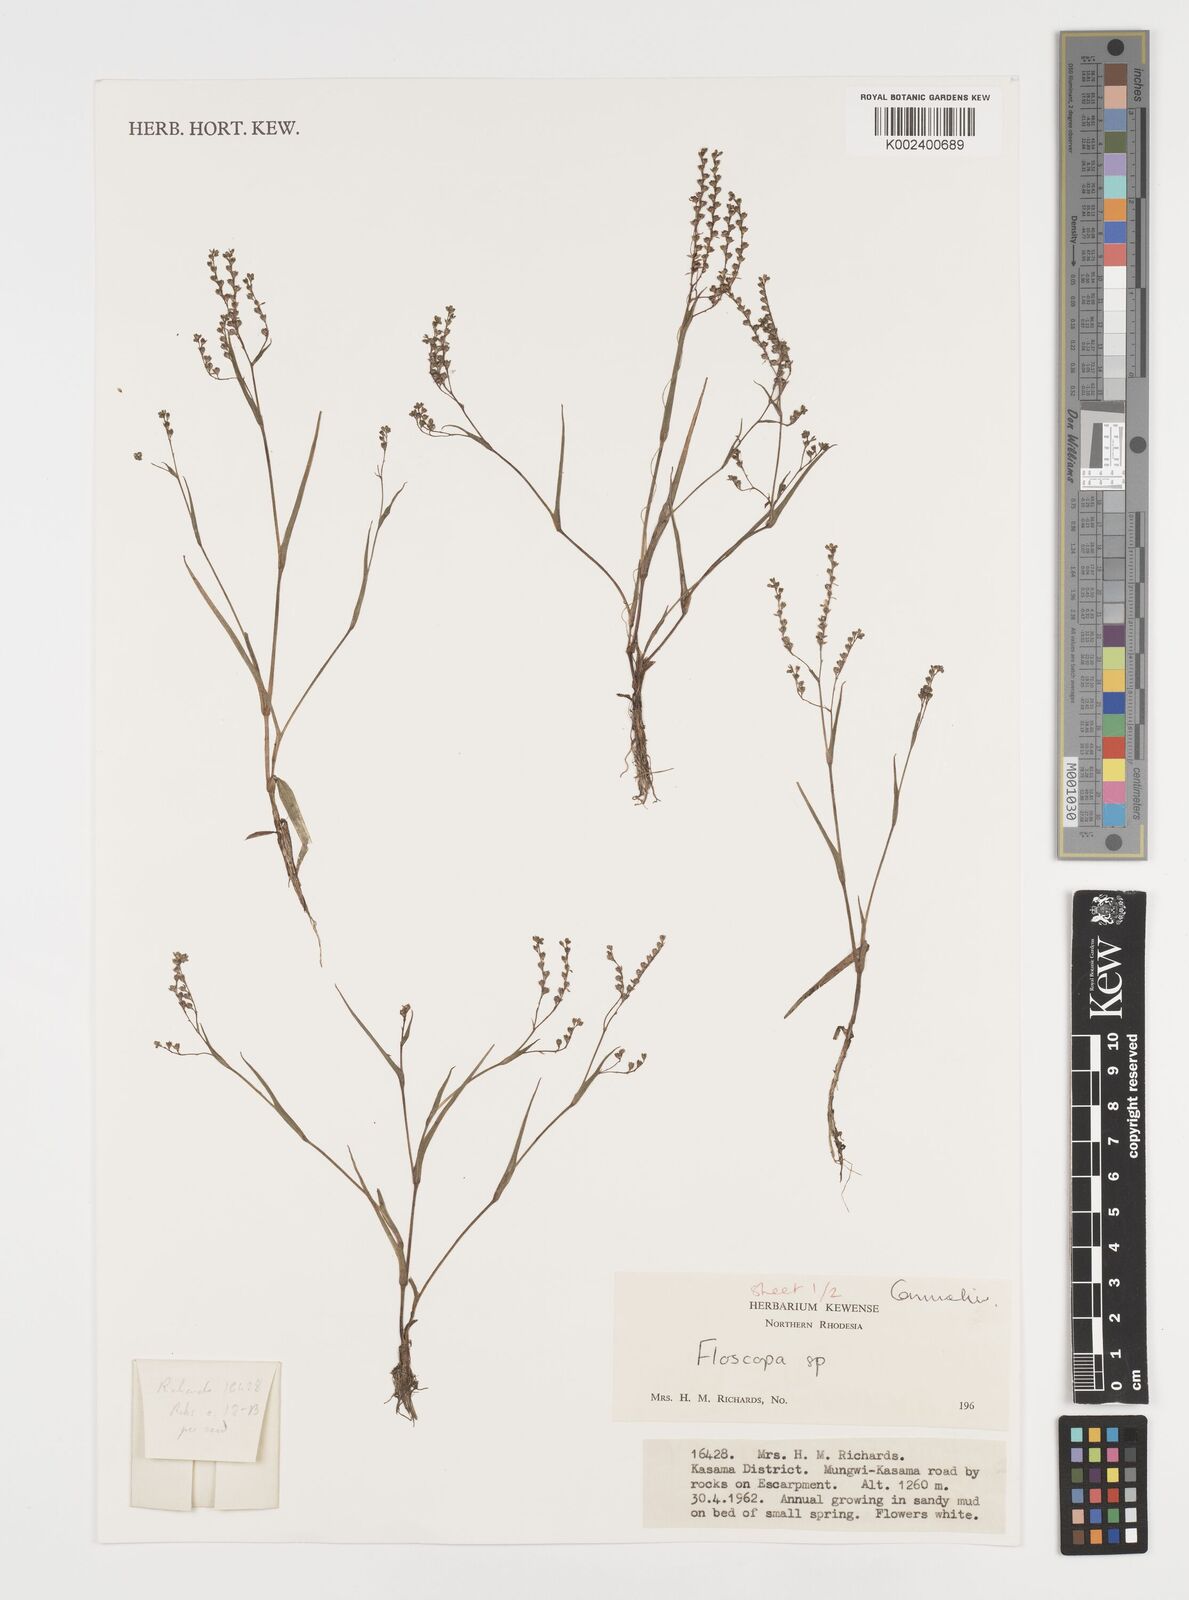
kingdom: Plantae
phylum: Tracheophyta
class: Liliopsida
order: Commelinales
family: Commelinaceae
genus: Floscopa
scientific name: Floscopa
